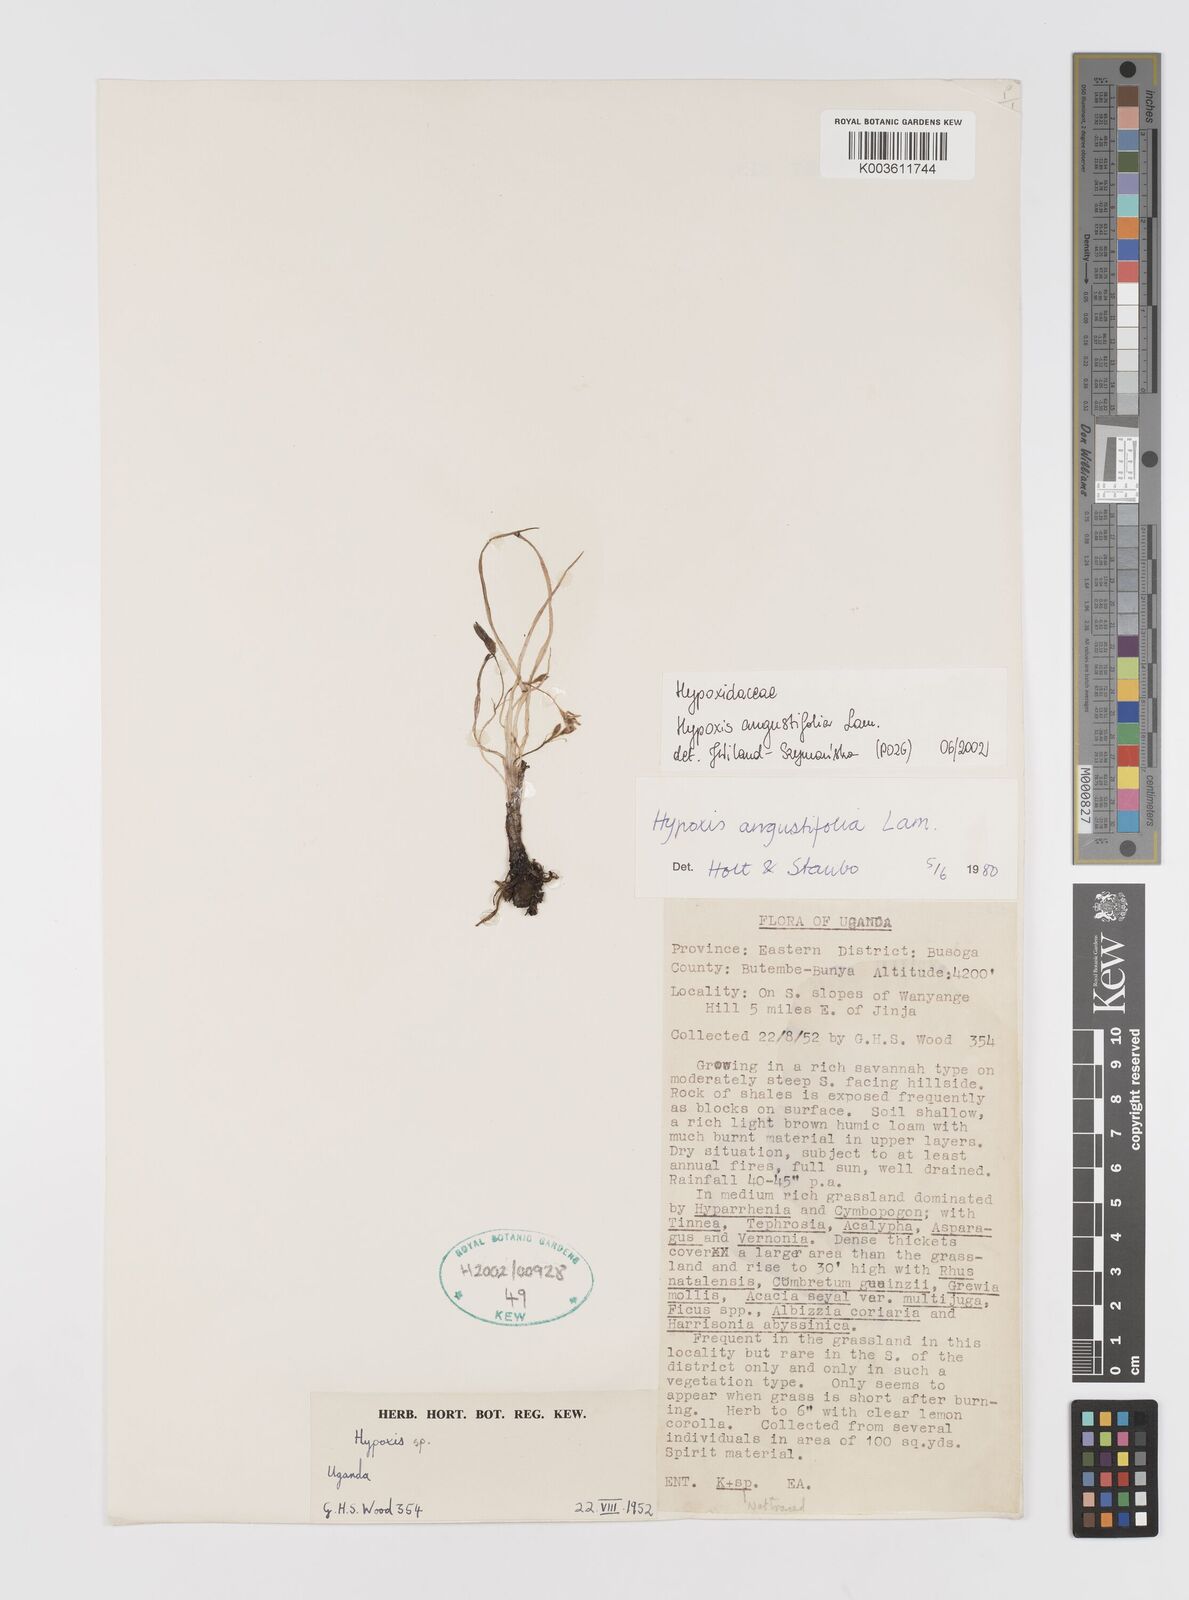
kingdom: Plantae
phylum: Tracheophyta
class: Liliopsida
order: Asparagales
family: Hypoxidaceae
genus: Hypoxis
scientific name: Hypoxis angustifolia
